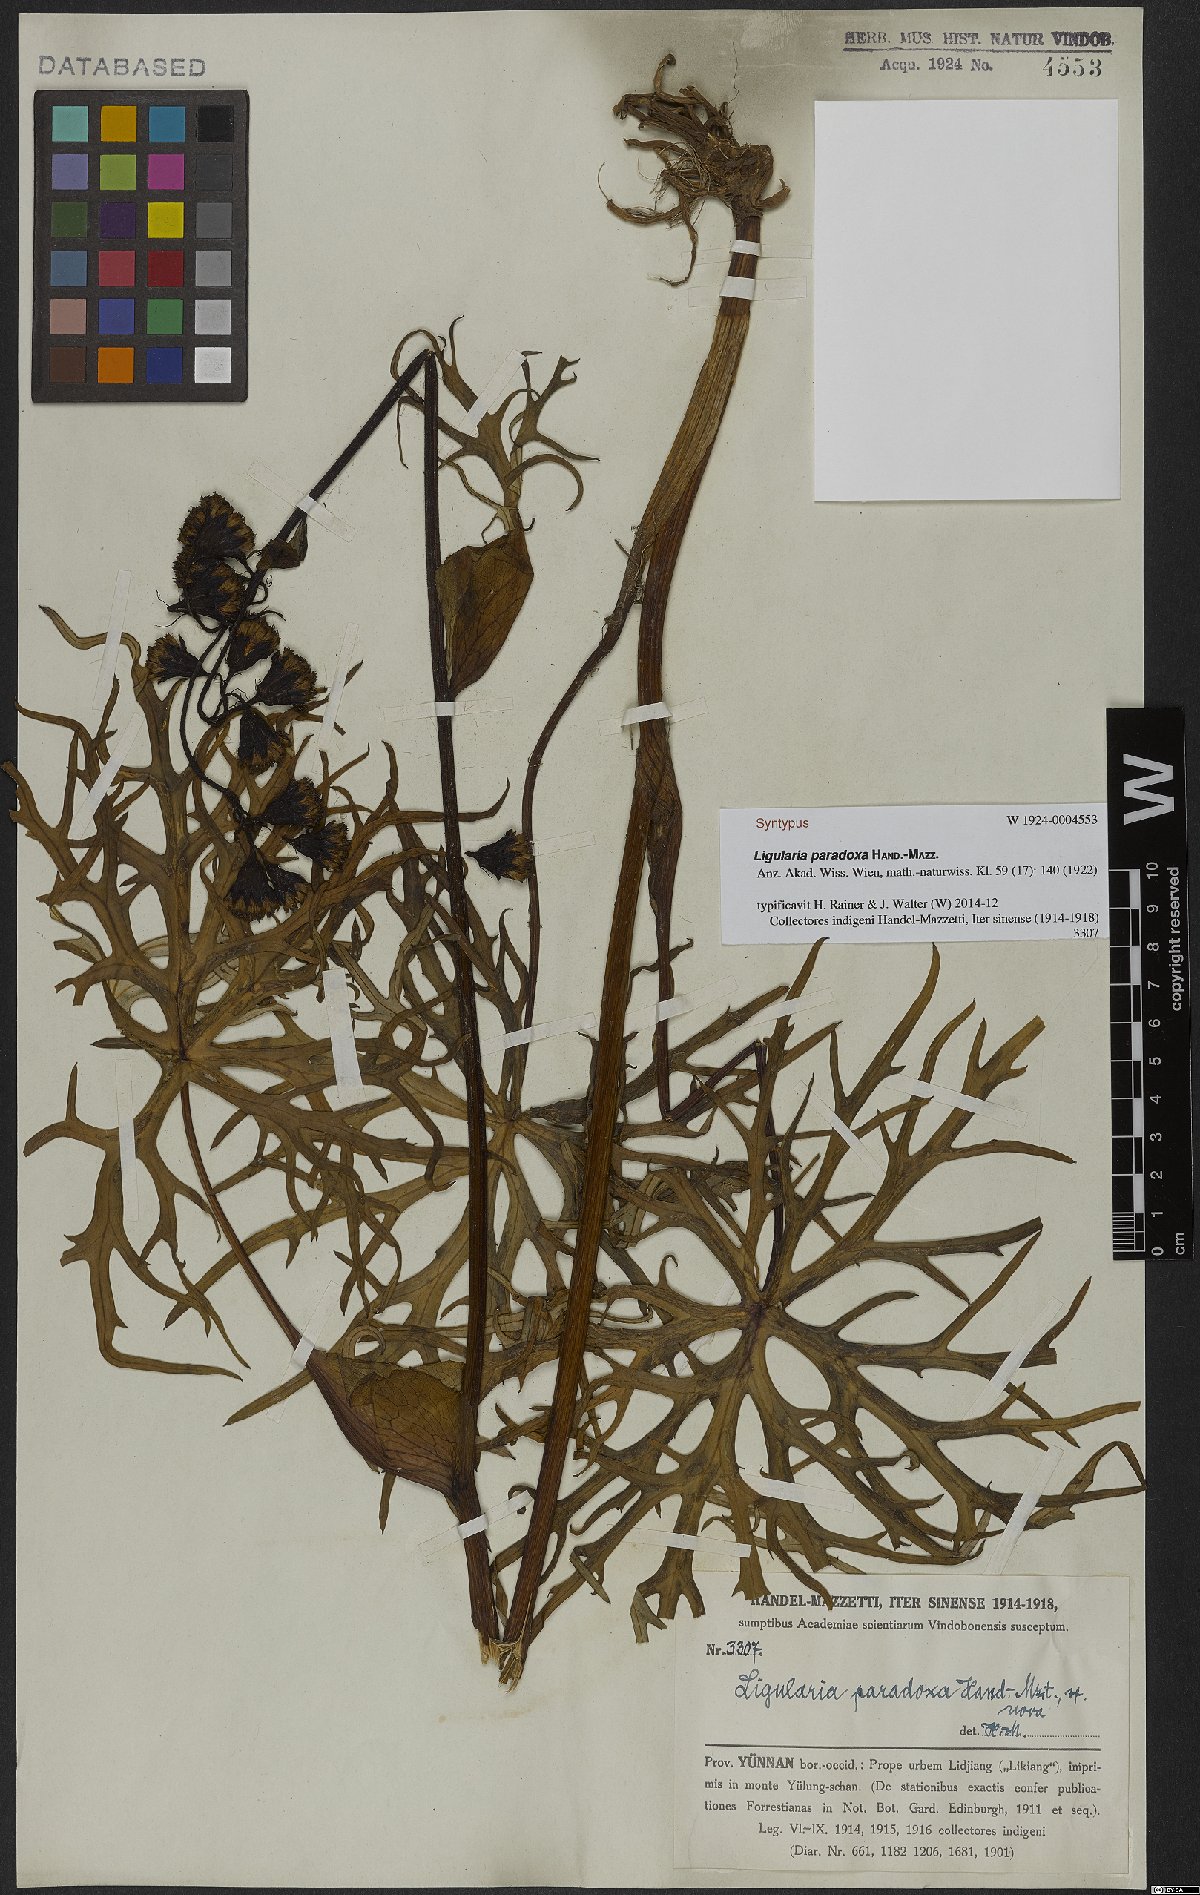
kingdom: Plantae
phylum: Tracheophyta
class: Magnoliopsida
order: Asterales
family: Asteraceae
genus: Ligularia
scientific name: Ligularia paradoxa
